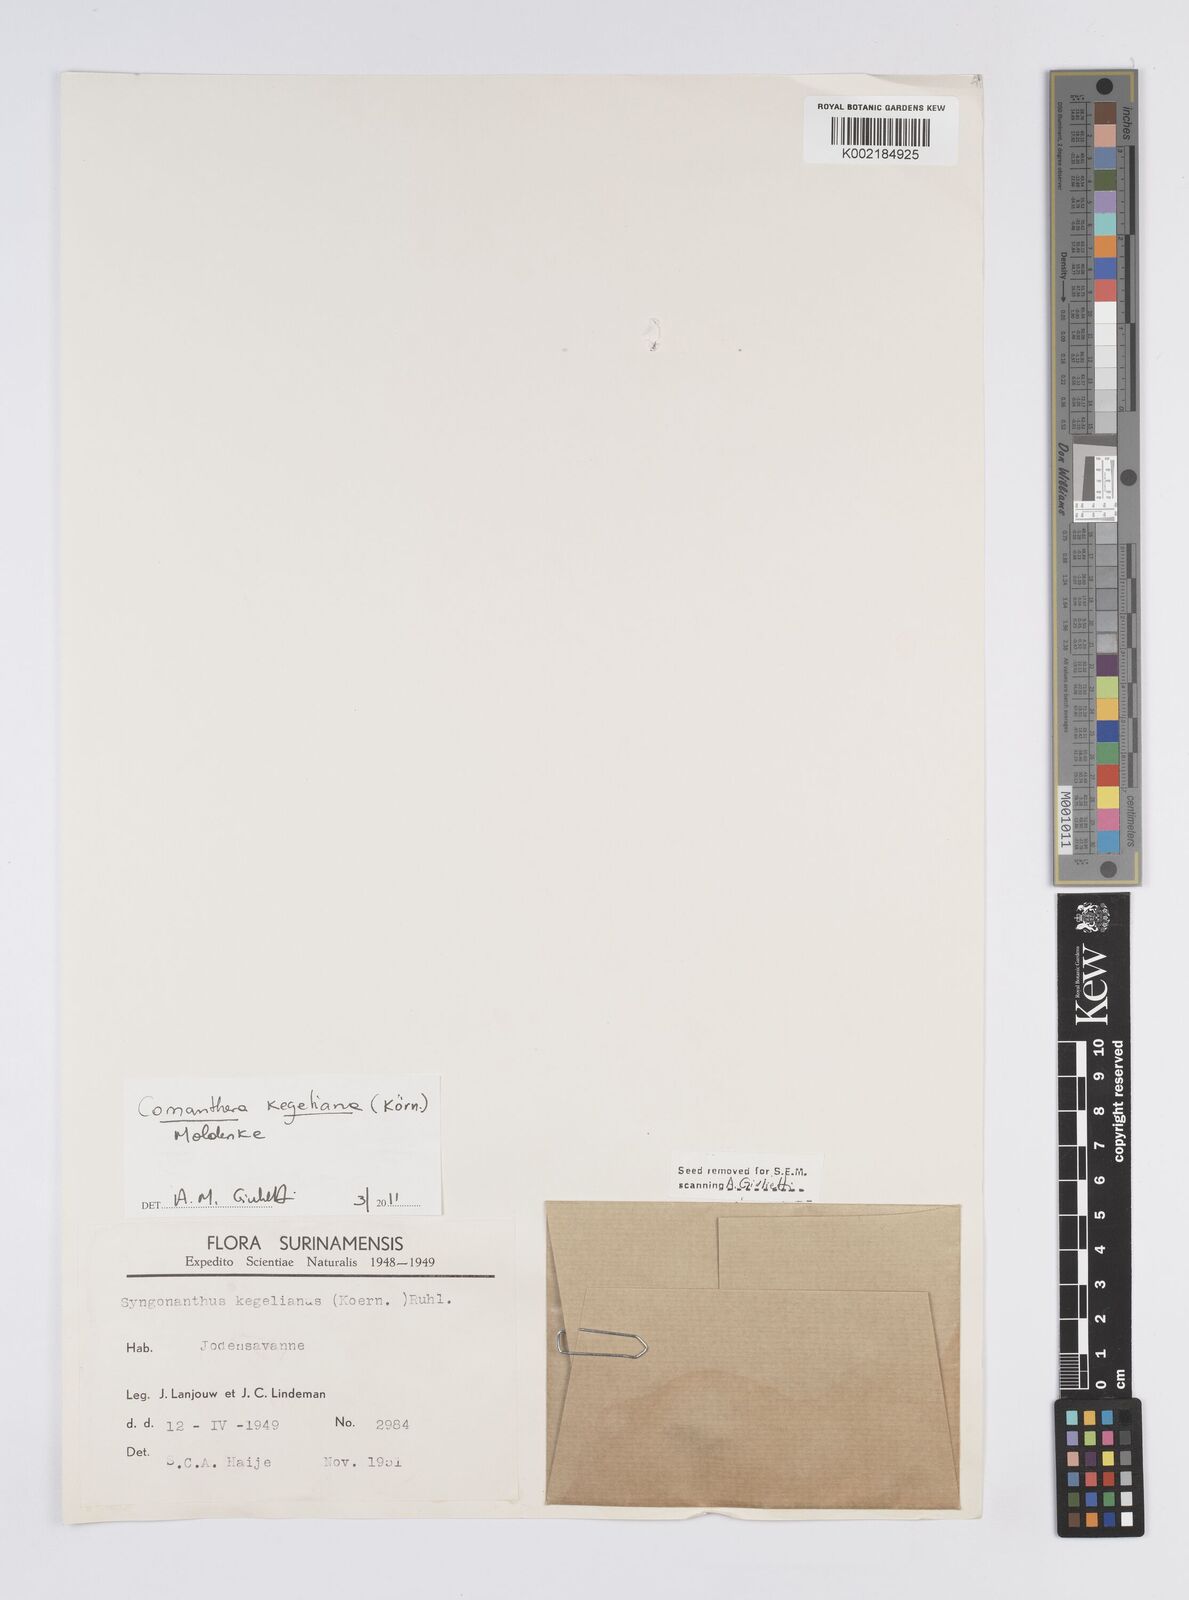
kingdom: Plantae
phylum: Tracheophyta
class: Liliopsida
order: Poales
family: Eriocaulaceae
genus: Comanthera
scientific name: Comanthera kegeliana
